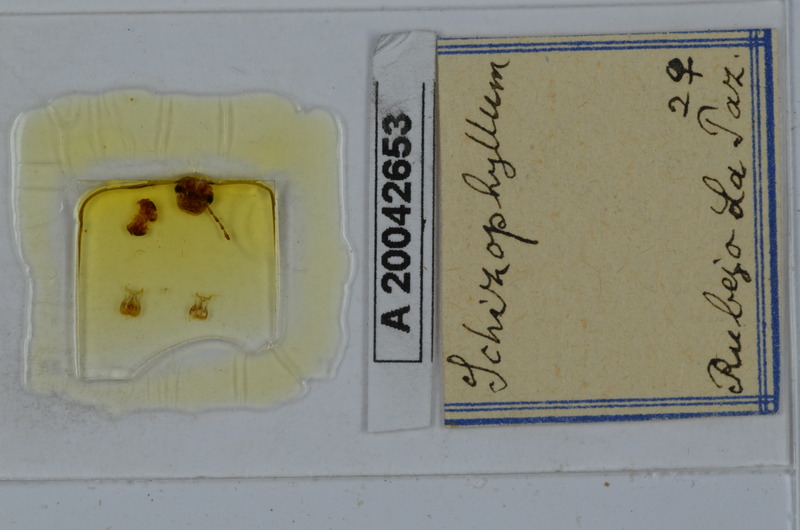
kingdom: Animalia
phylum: Arthropoda
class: Diplopoda
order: Julida
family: Julidae
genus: Schizophyllum
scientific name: Schizophyllum
